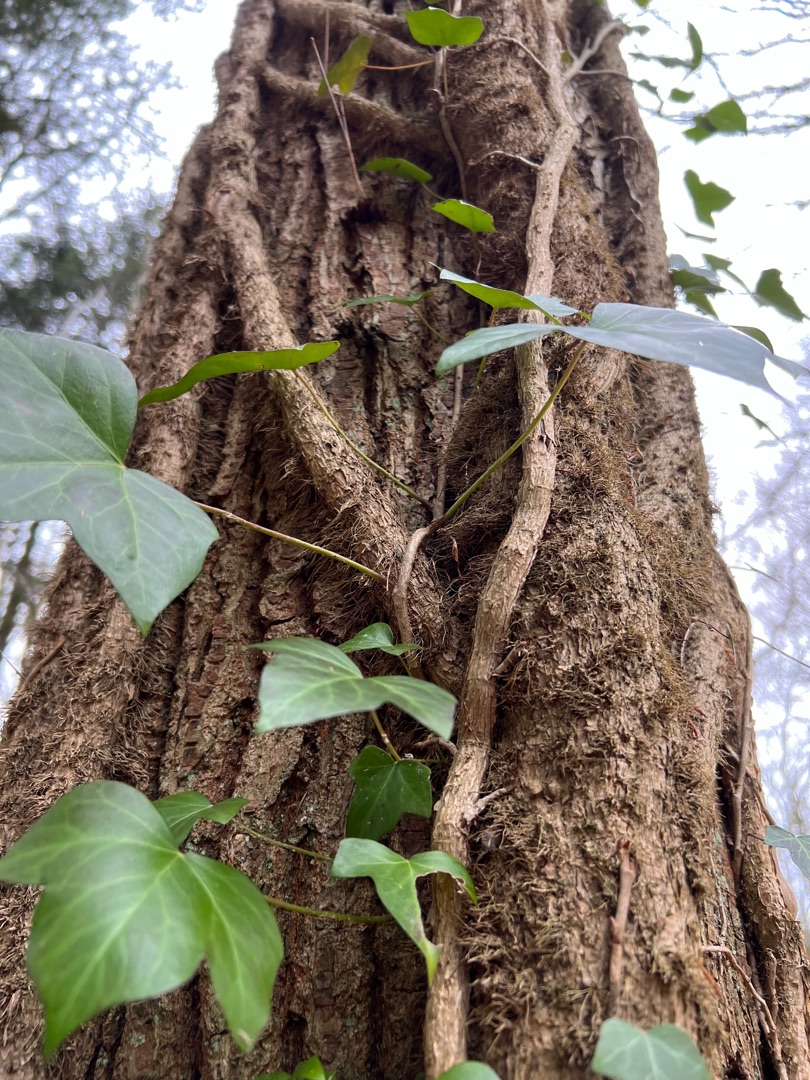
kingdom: Plantae
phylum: Tracheophyta
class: Magnoliopsida
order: Apiales
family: Araliaceae
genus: Hedera
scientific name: Hedera helix
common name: Vedbend
